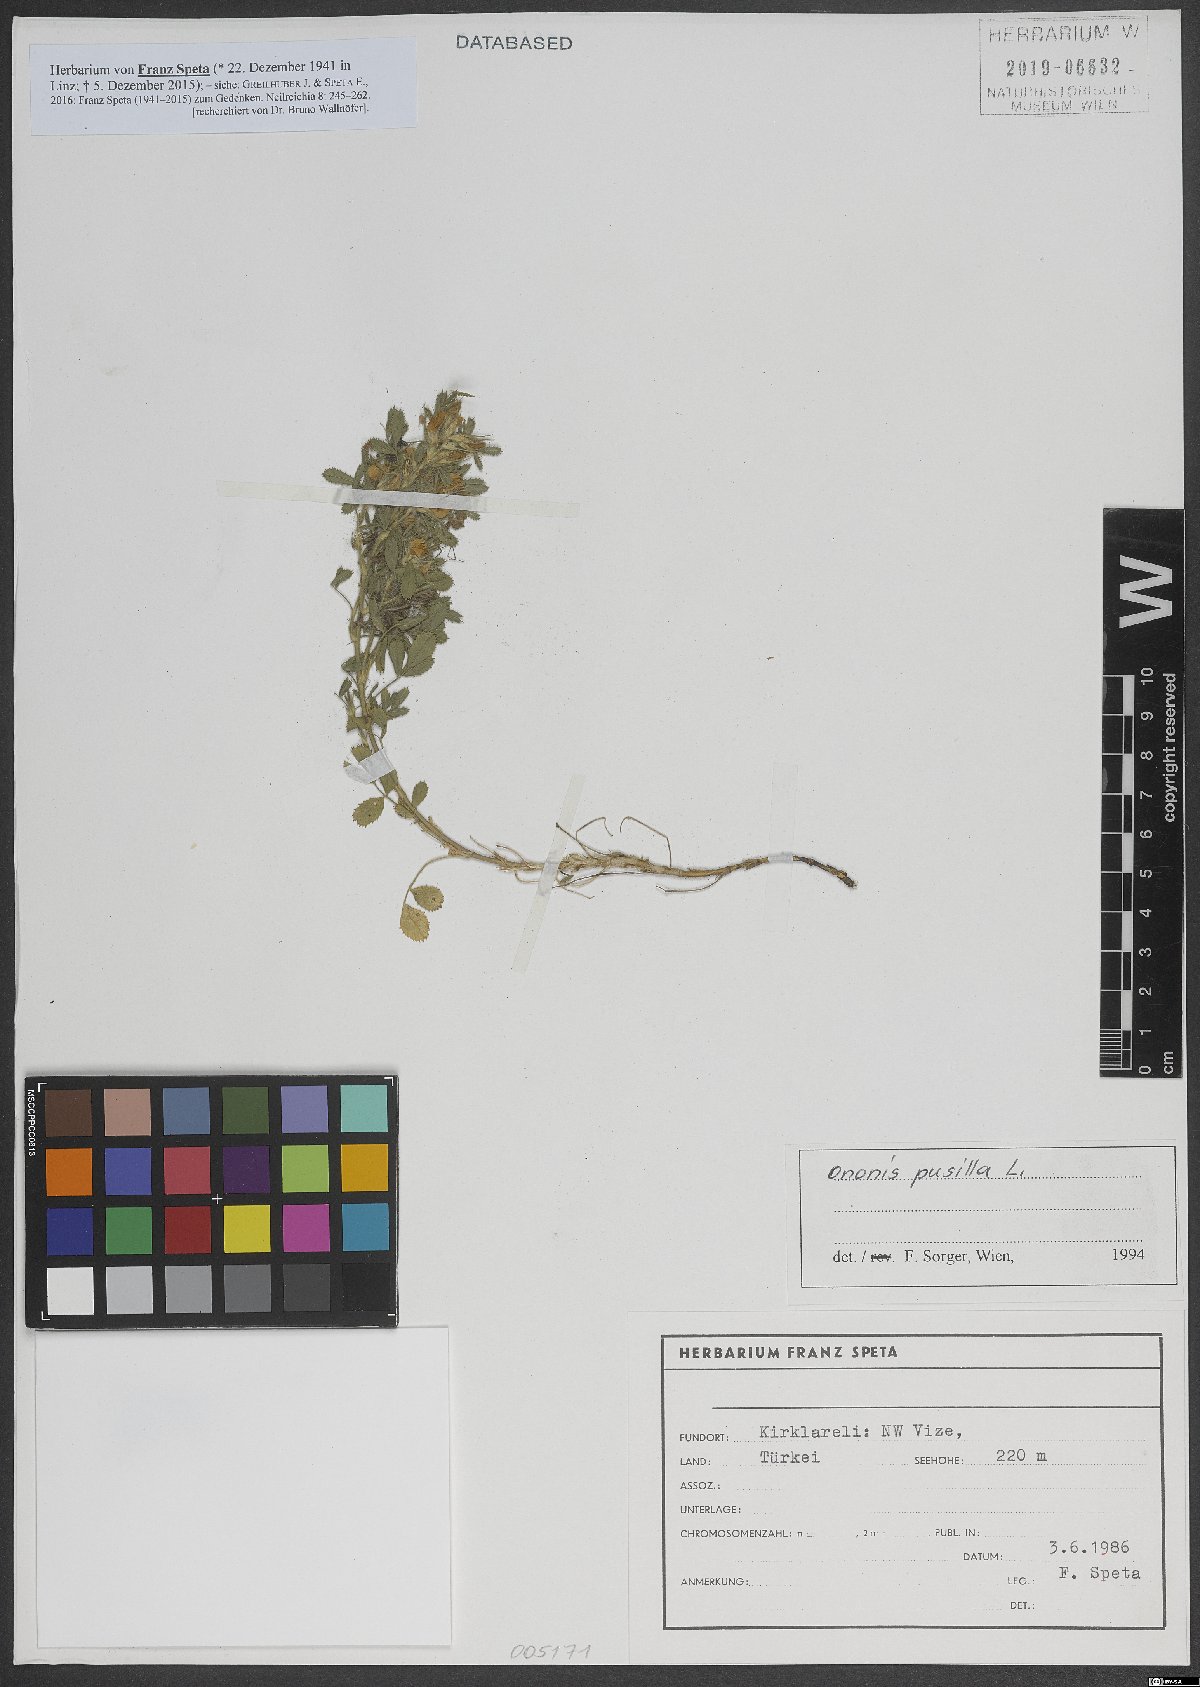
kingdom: Plantae
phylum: Tracheophyta
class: Magnoliopsida
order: Fabales
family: Fabaceae
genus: Ononis
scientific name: Ononis pusilla
